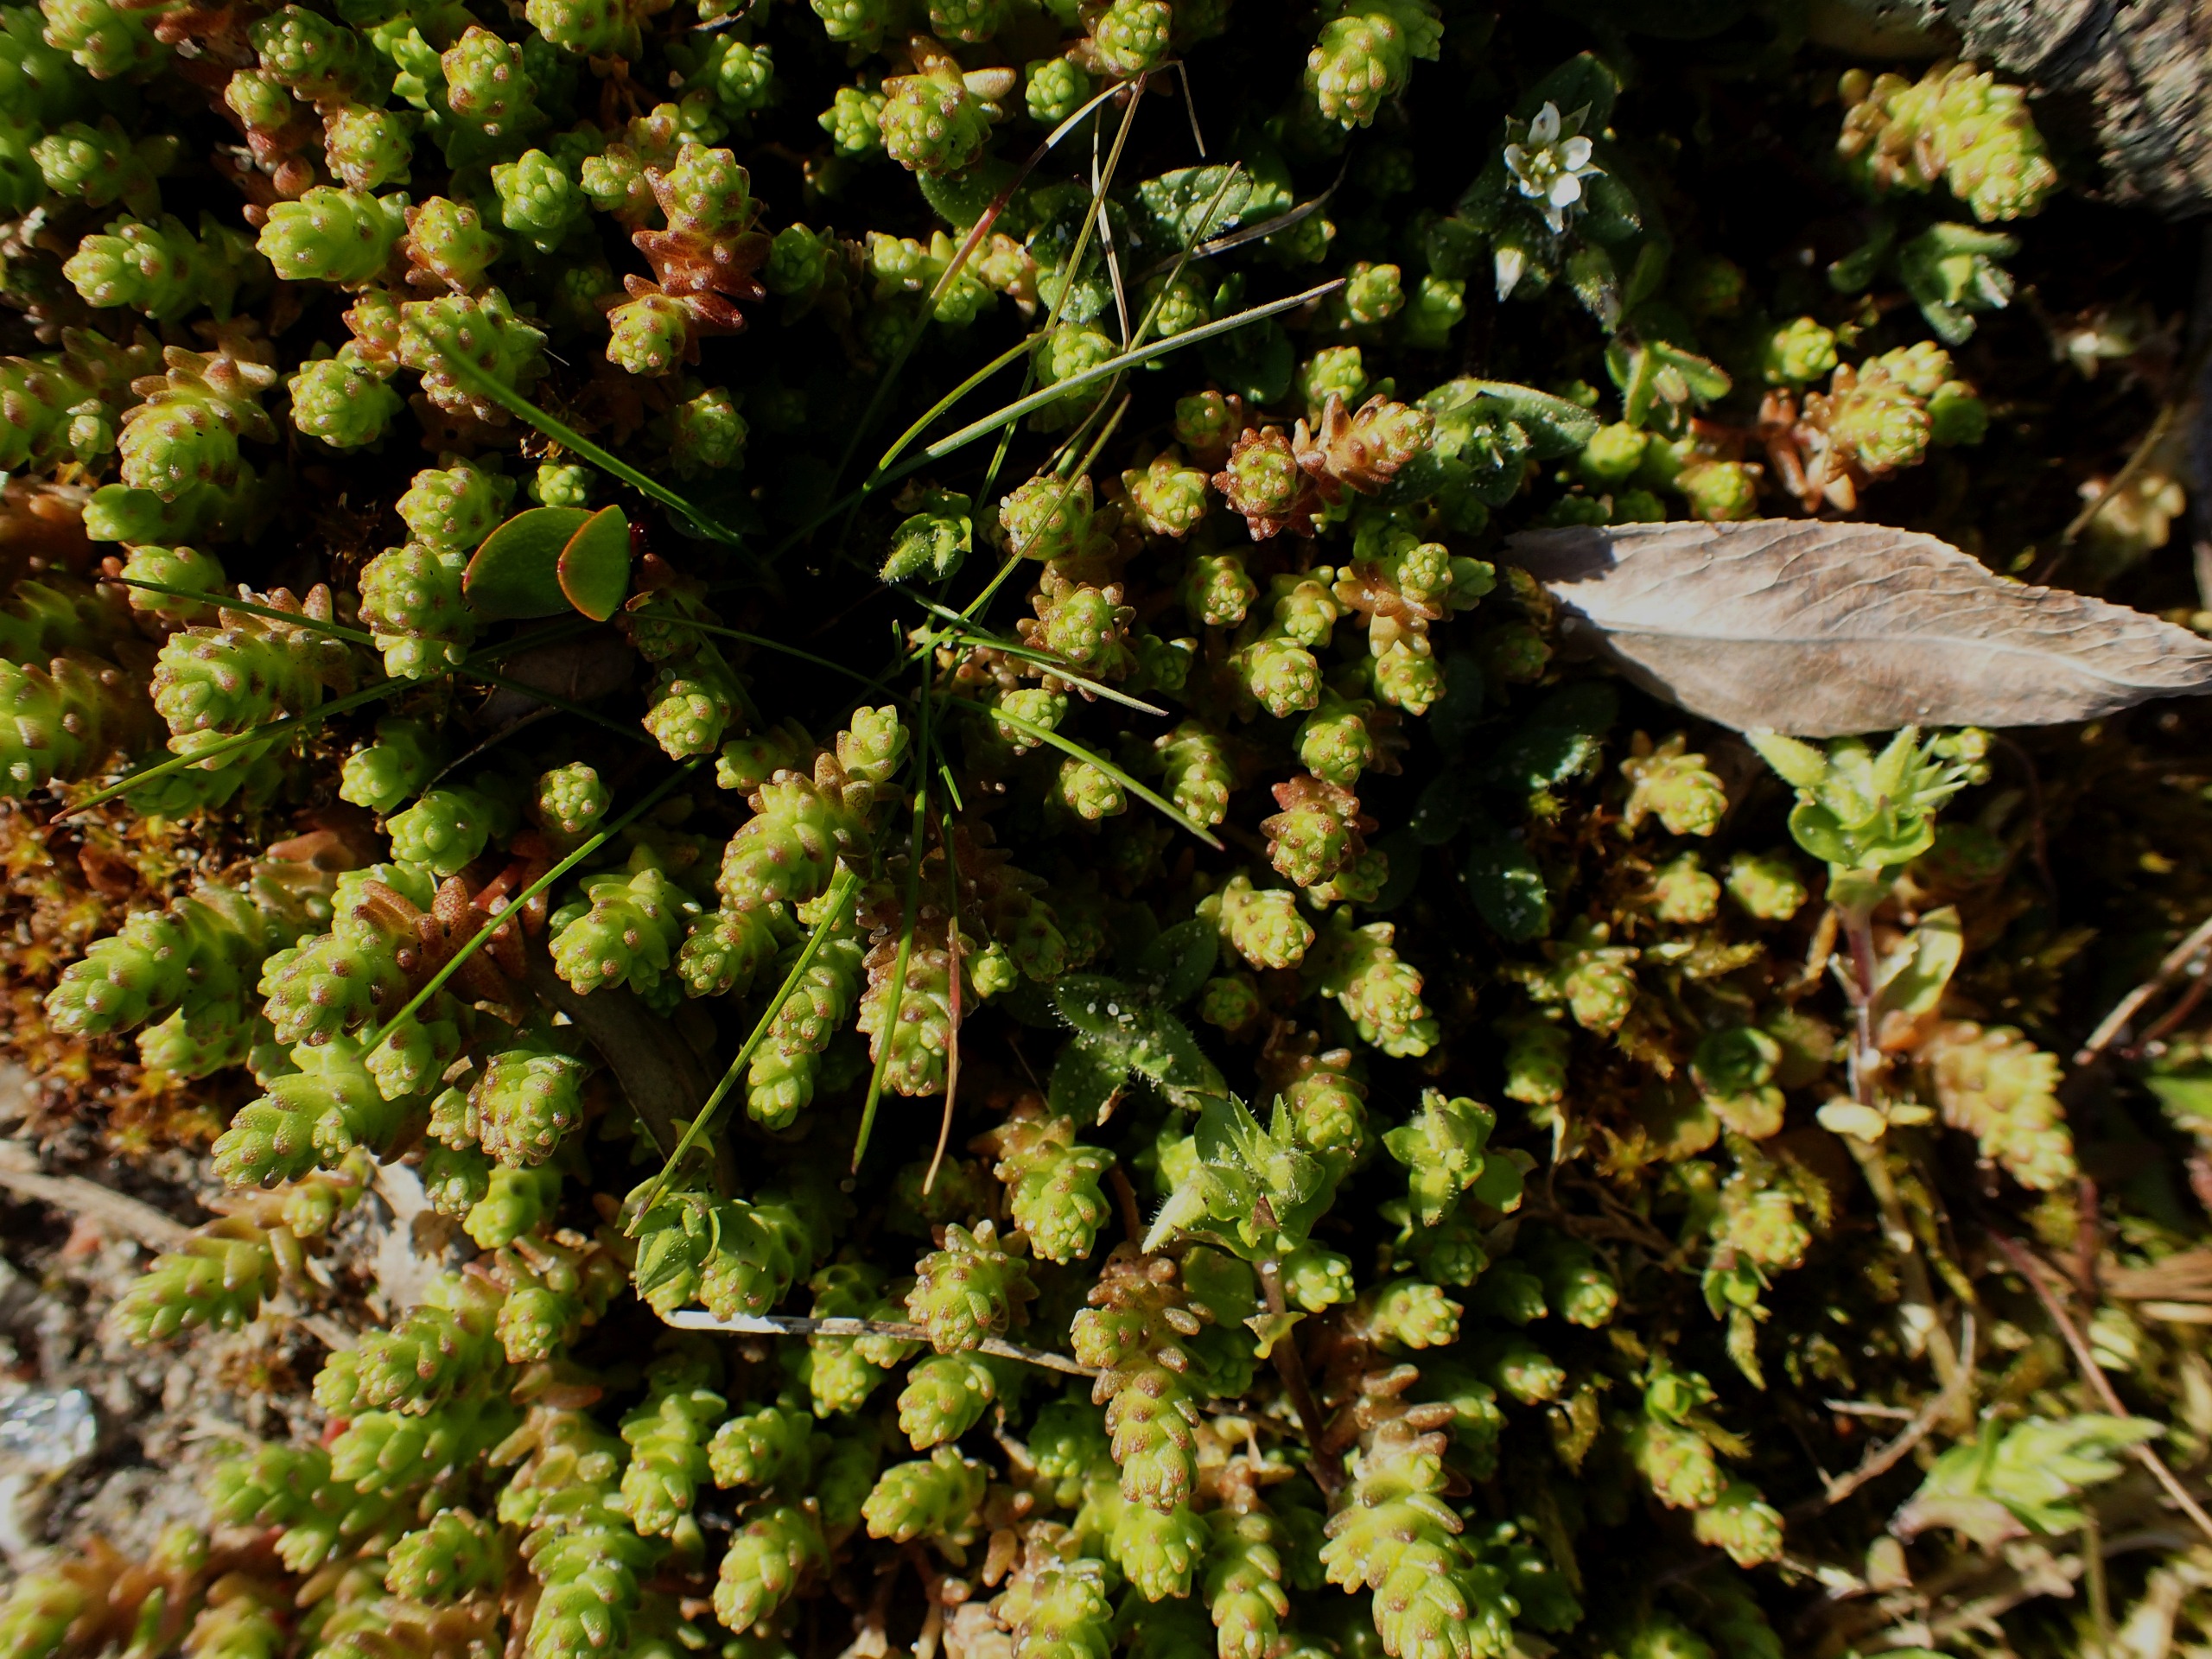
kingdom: Plantae
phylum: Tracheophyta
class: Magnoliopsida
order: Saxifragales
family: Crassulaceae
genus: Sedum
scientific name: Sedum acre
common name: Bidende stenurt
